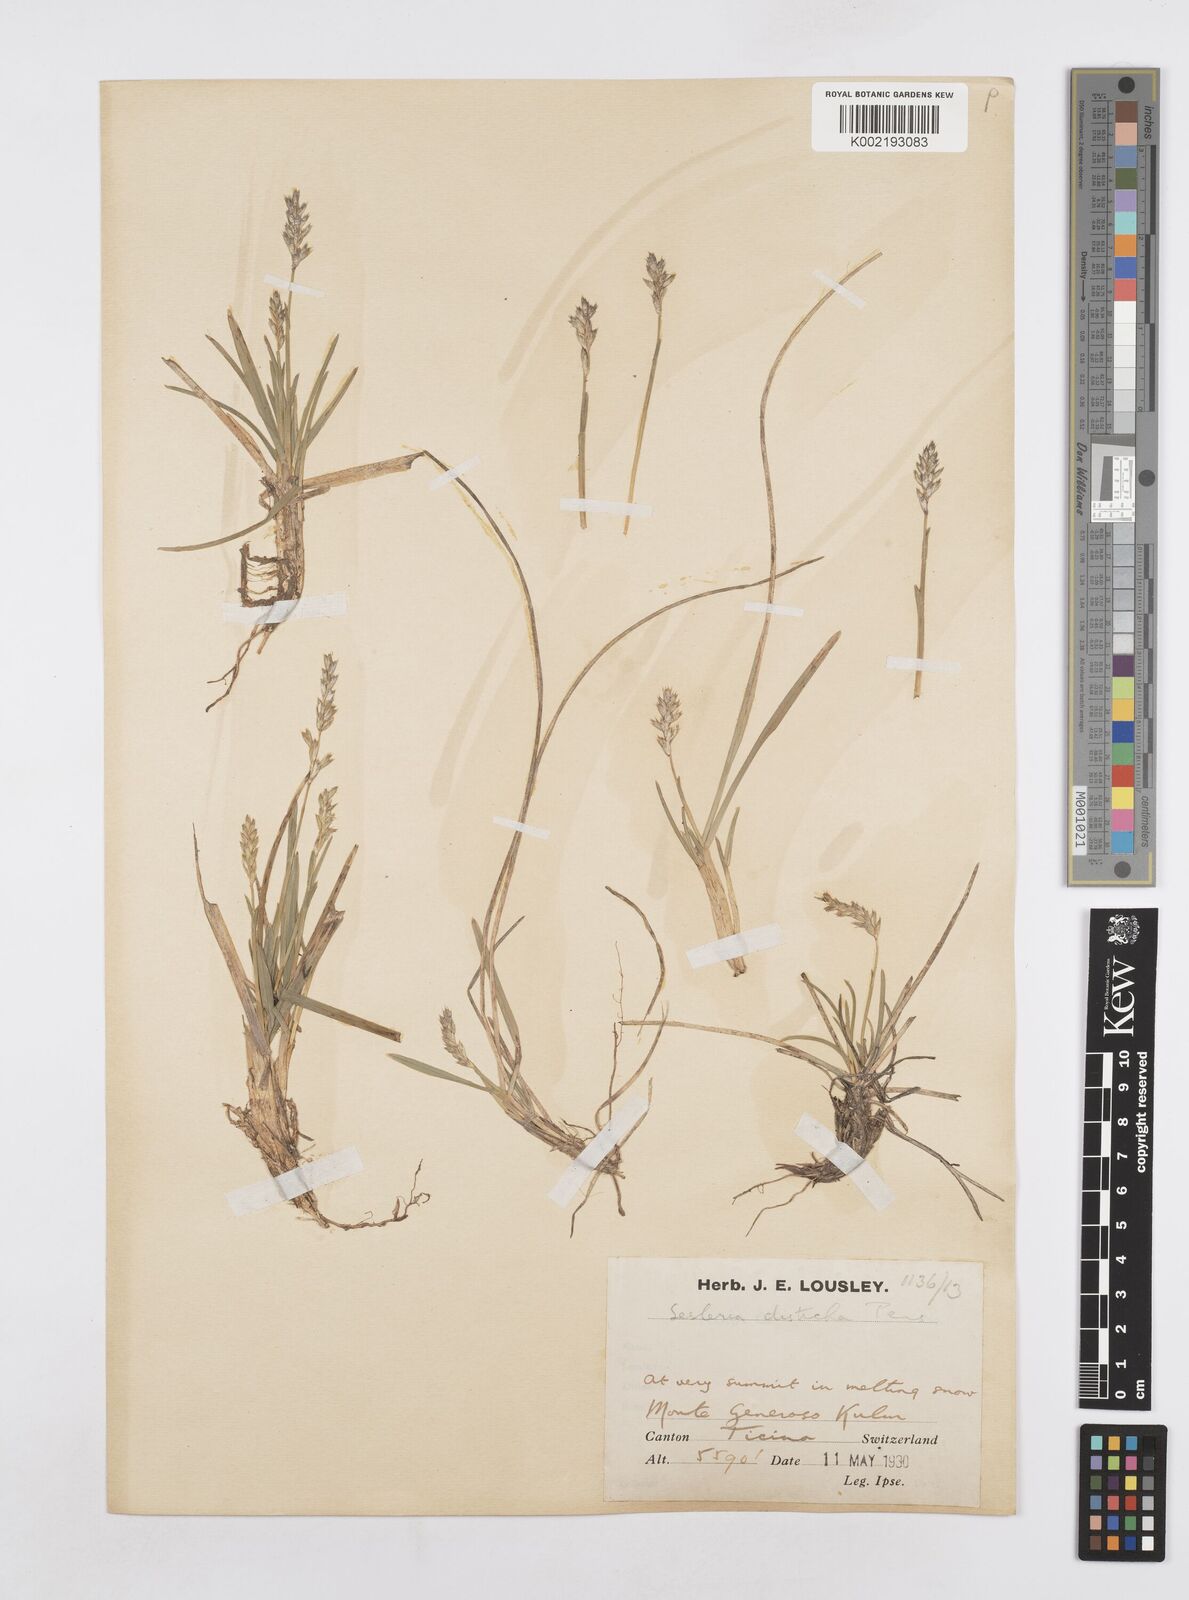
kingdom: Plantae
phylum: Tracheophyta
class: Liliopsida
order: Poales
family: Poaceae
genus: Sesleria
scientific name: Sesleria
